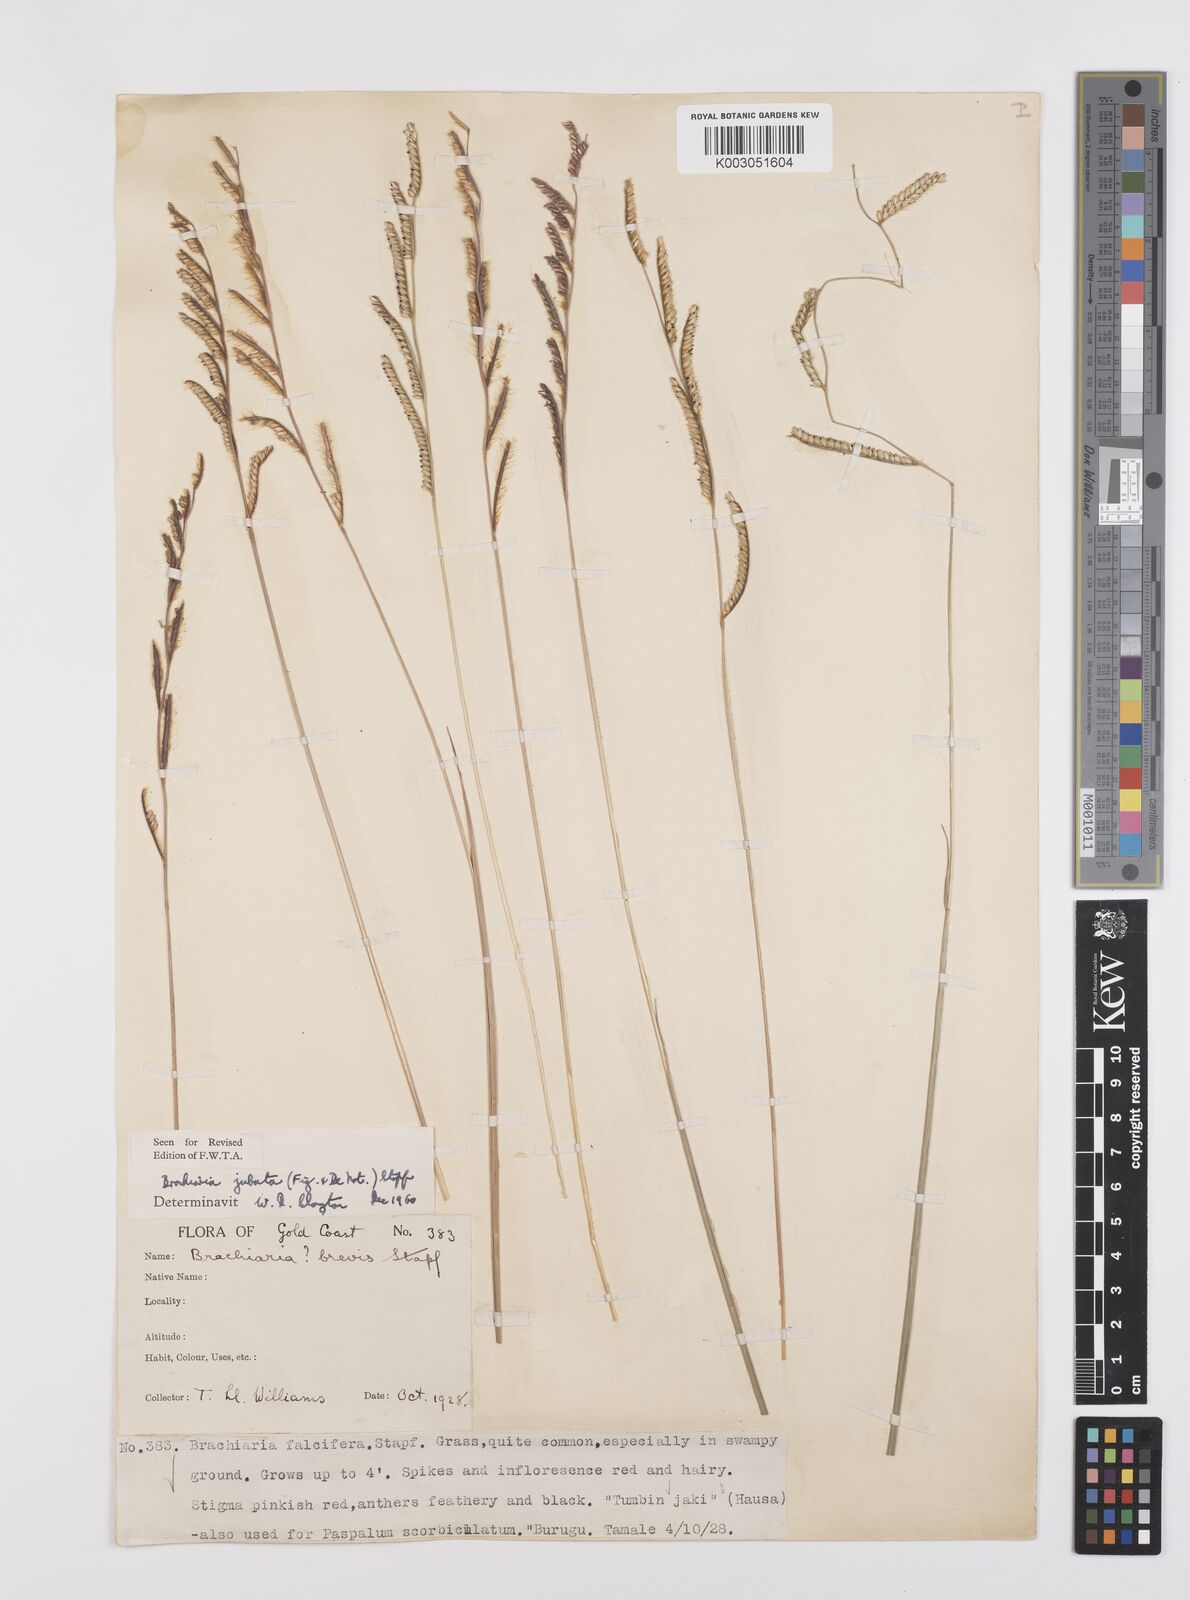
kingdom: Plantae
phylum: Tracheophyta
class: Liliopsida
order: Poales
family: Poaceae
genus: Urochloa
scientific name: Urochloa jubata
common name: Buffalograss
